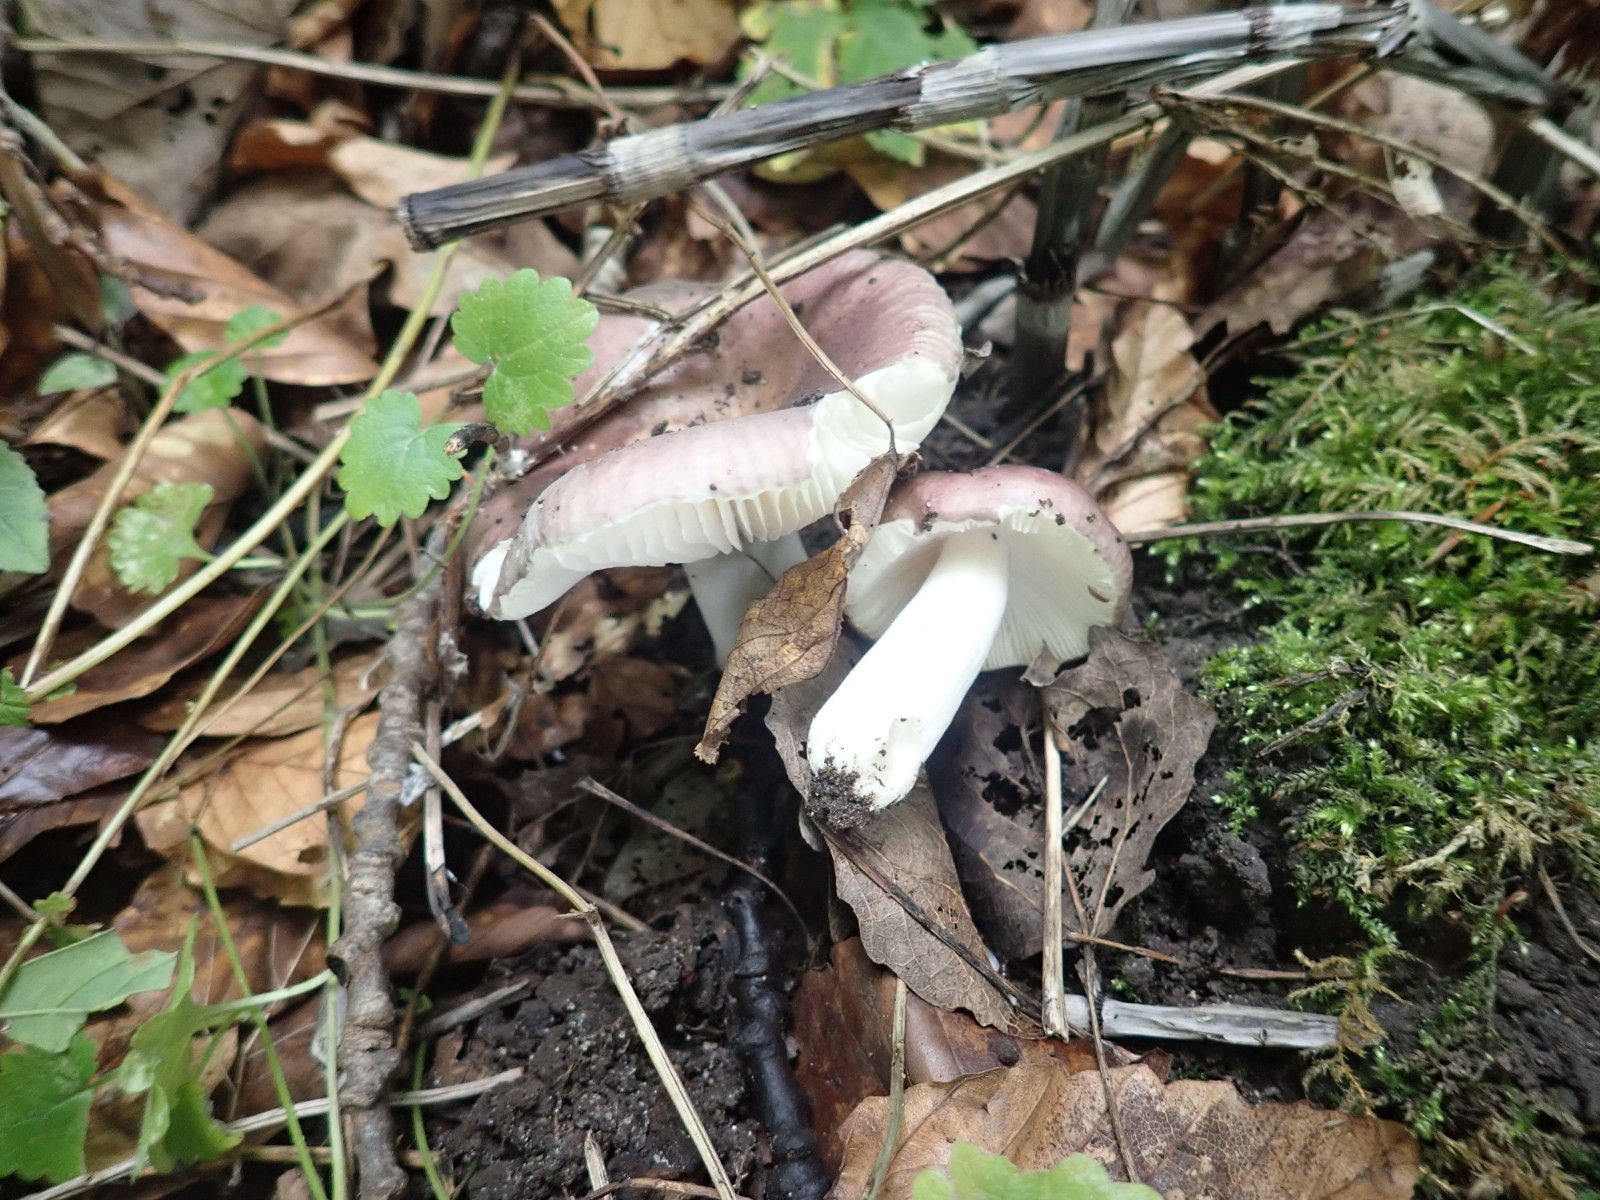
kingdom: Fungi
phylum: Basidiomycota
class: Agaricomycetes
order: Russulales
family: Russulaceae
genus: Russula
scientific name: Russula pelargonia
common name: pelargonie-skørhat
